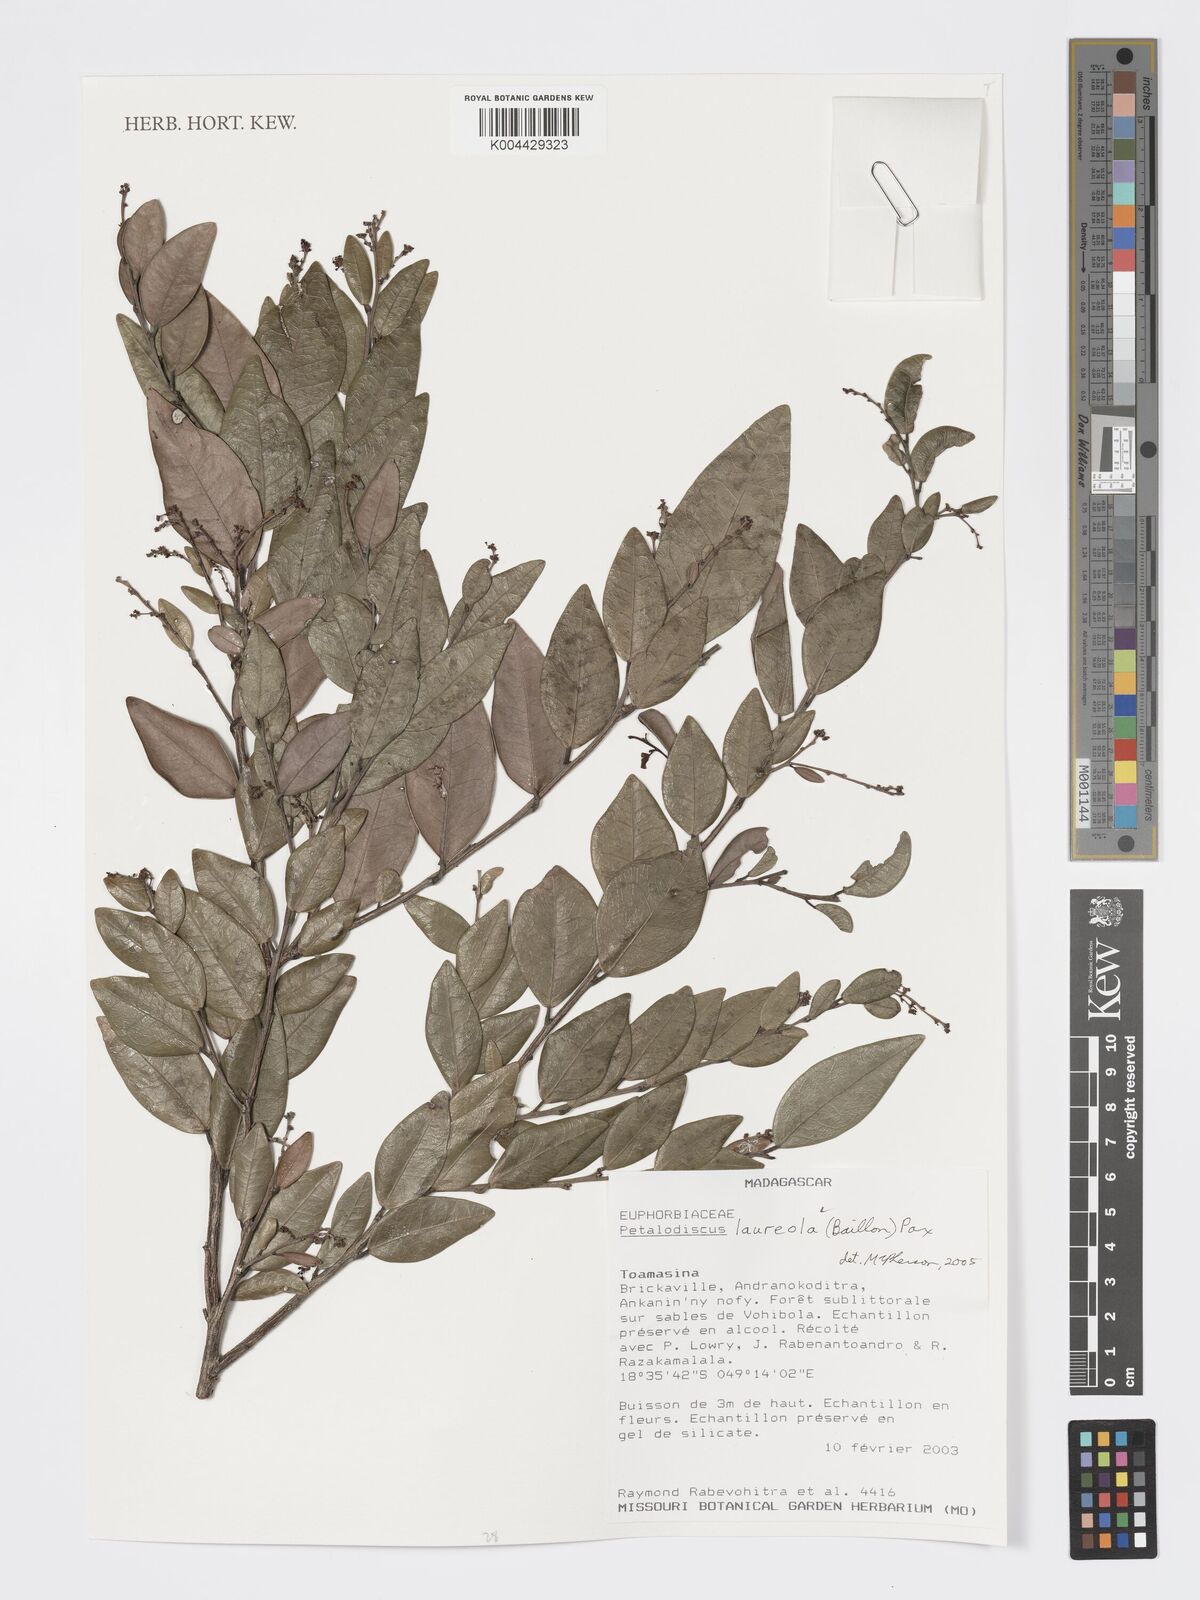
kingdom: Plantae
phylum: Tracheophyta
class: Magnoliopsida
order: Malpighiales
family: Phyllanthaceae
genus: Wielandia
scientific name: Wielandia laureola
